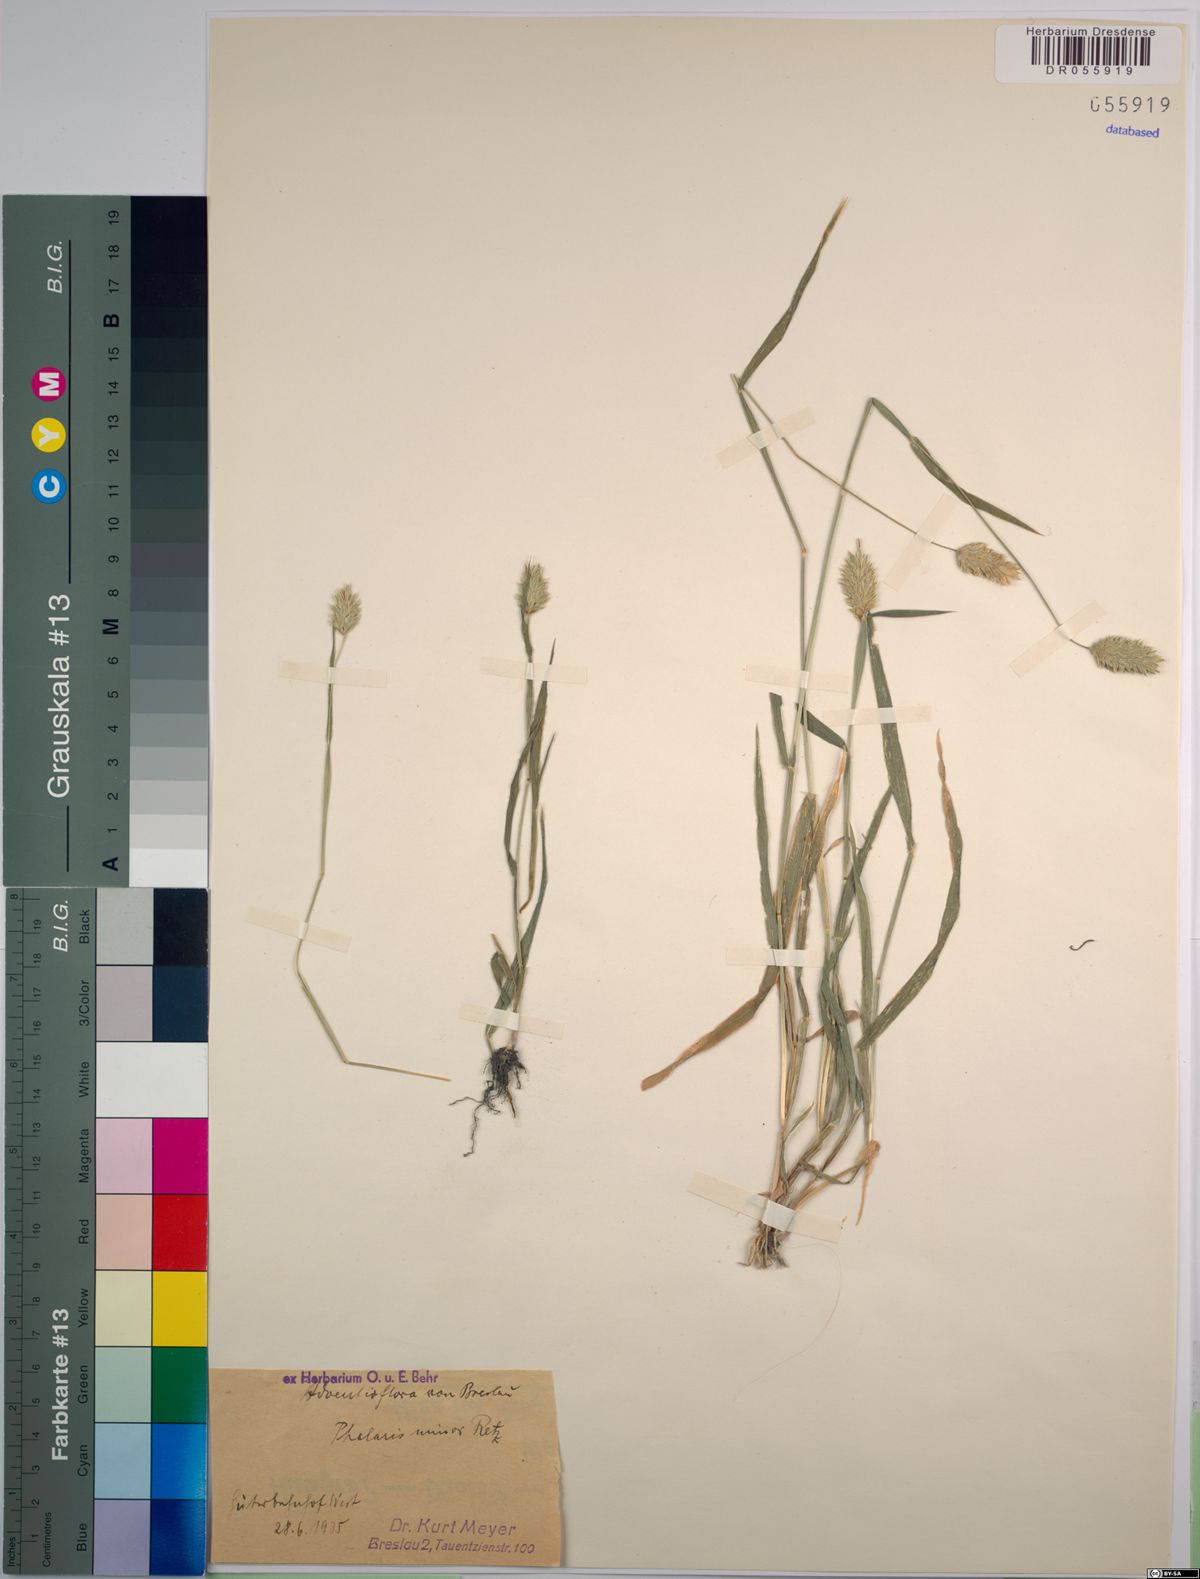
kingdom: Plantae
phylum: Tracheophyta
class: Liliopsida
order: Poales
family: Poaceae
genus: Phalaris
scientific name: Phalaris minor
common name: Littleseed canarygrass
